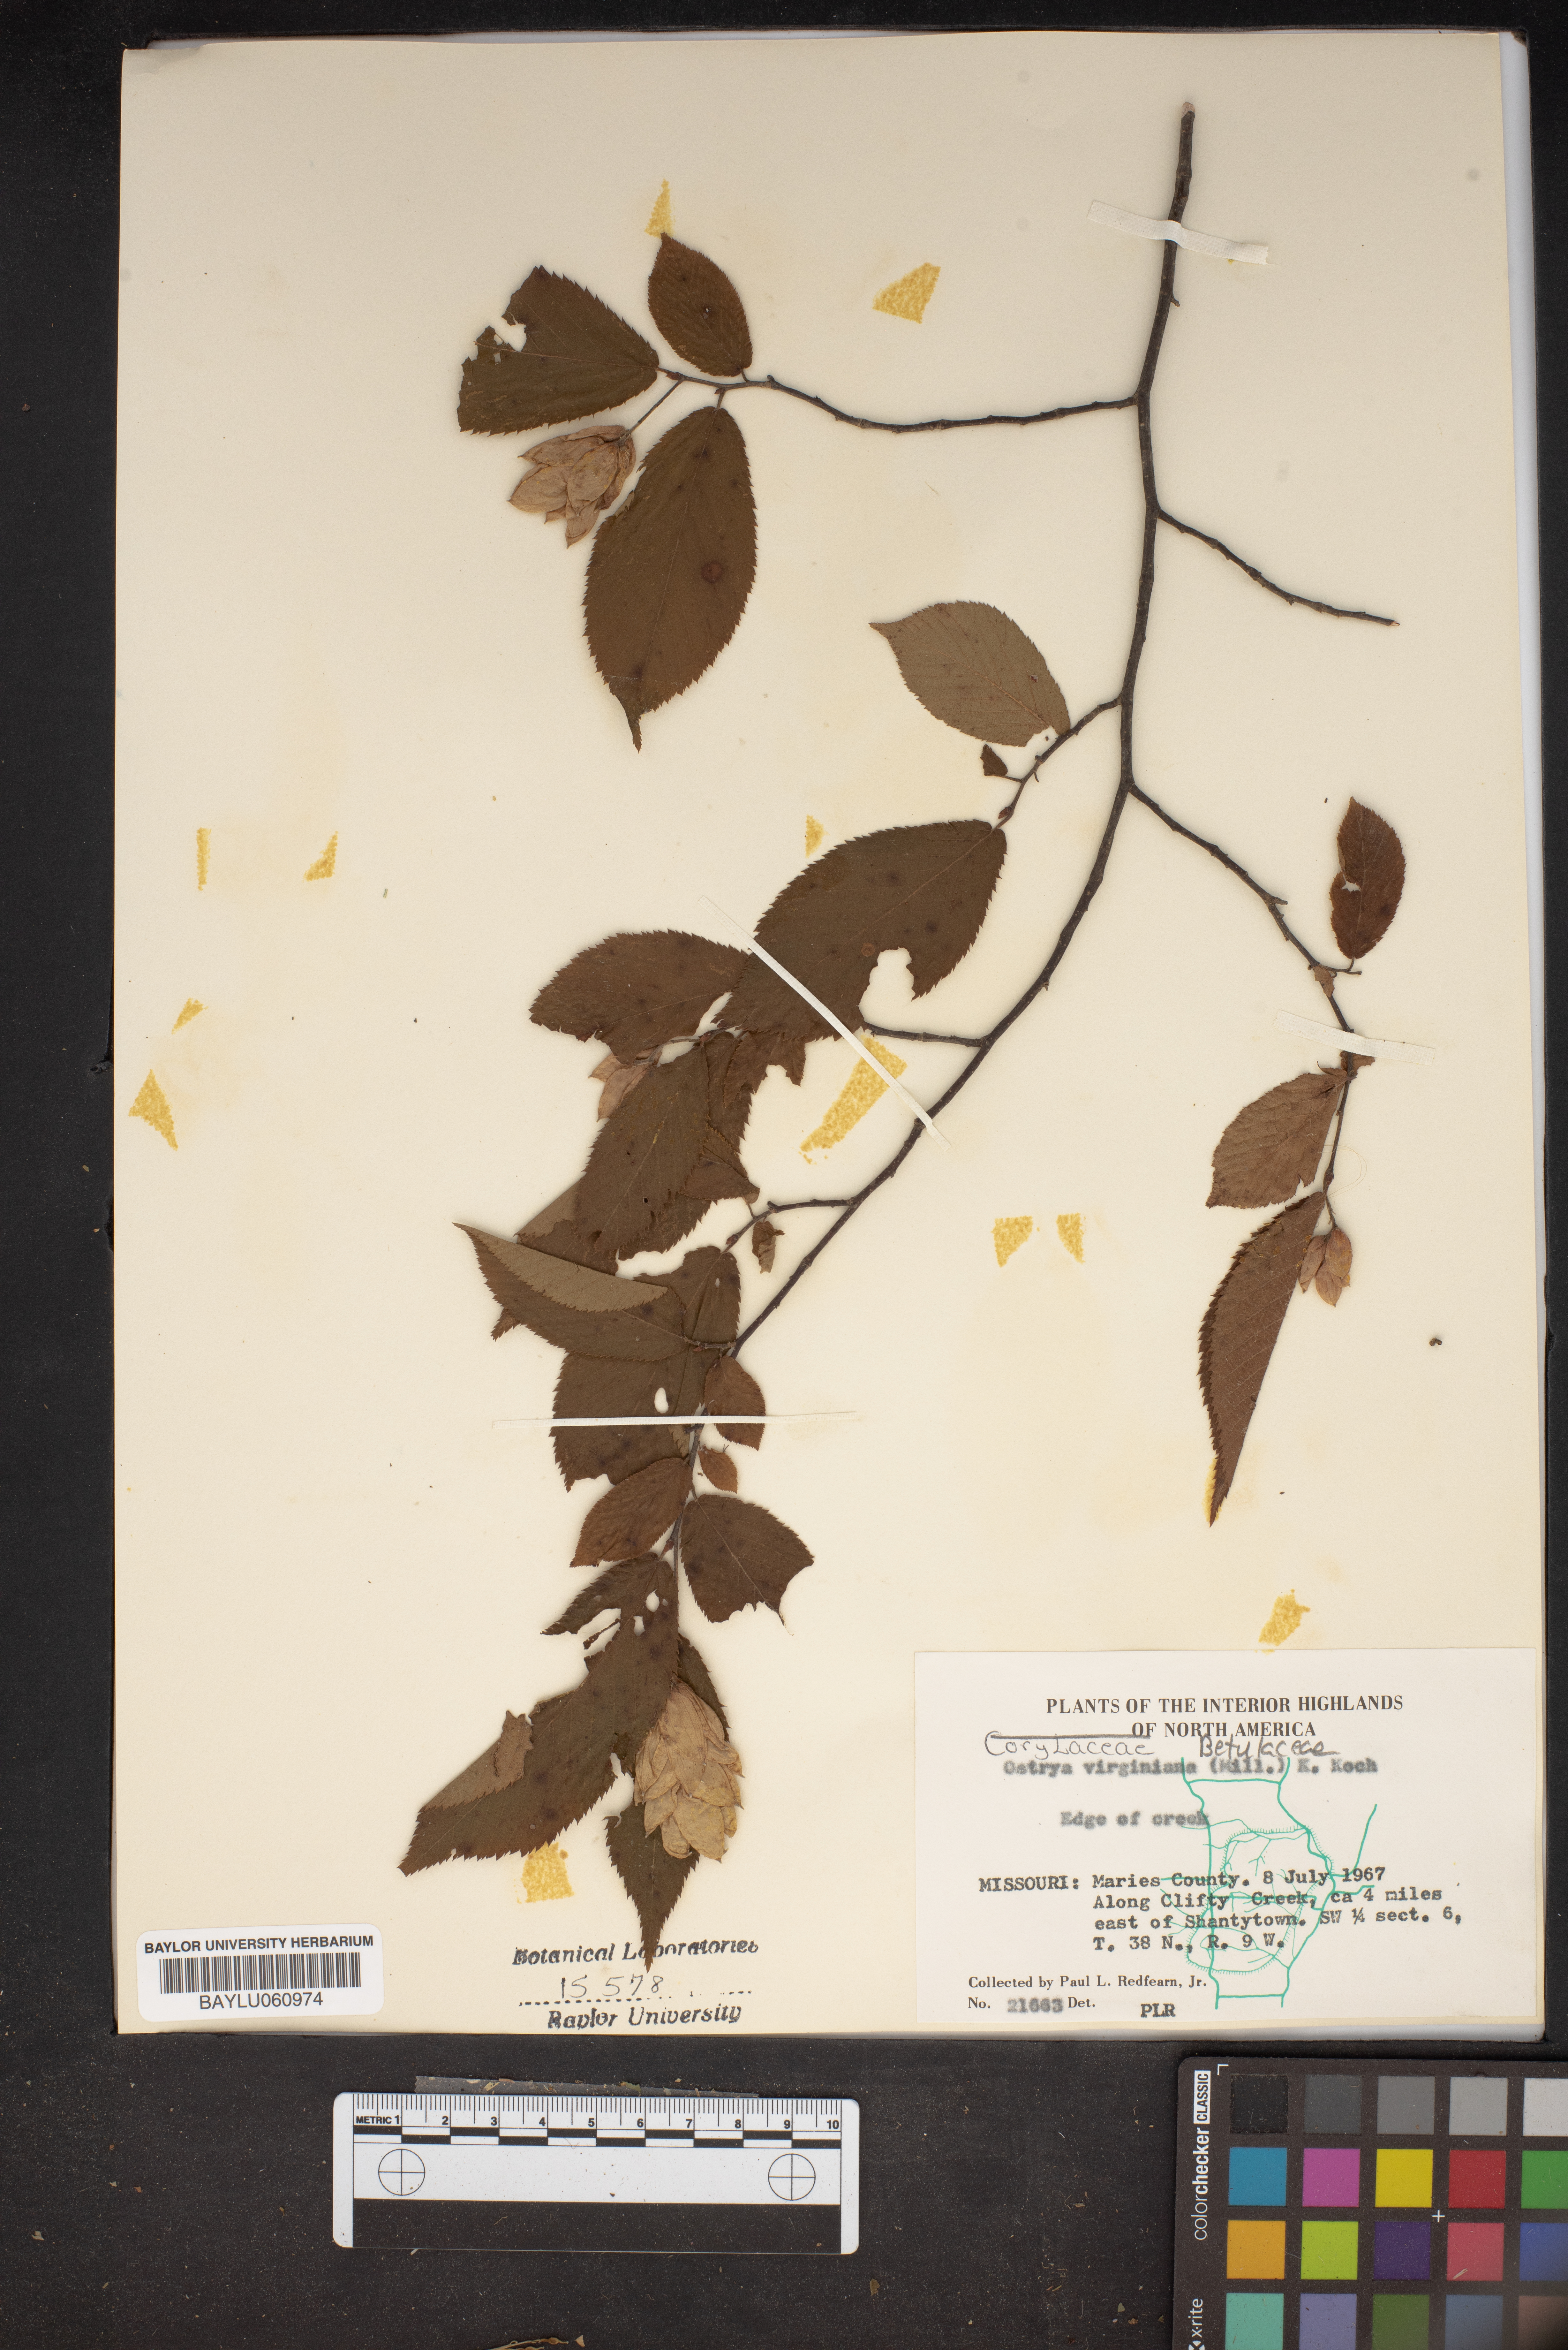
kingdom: Plantae
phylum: Tracheophyta
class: Magnoliopsida
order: Fagales
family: Betulaceae
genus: Ostrya
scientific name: Ostrya virginiana
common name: Ironwood
